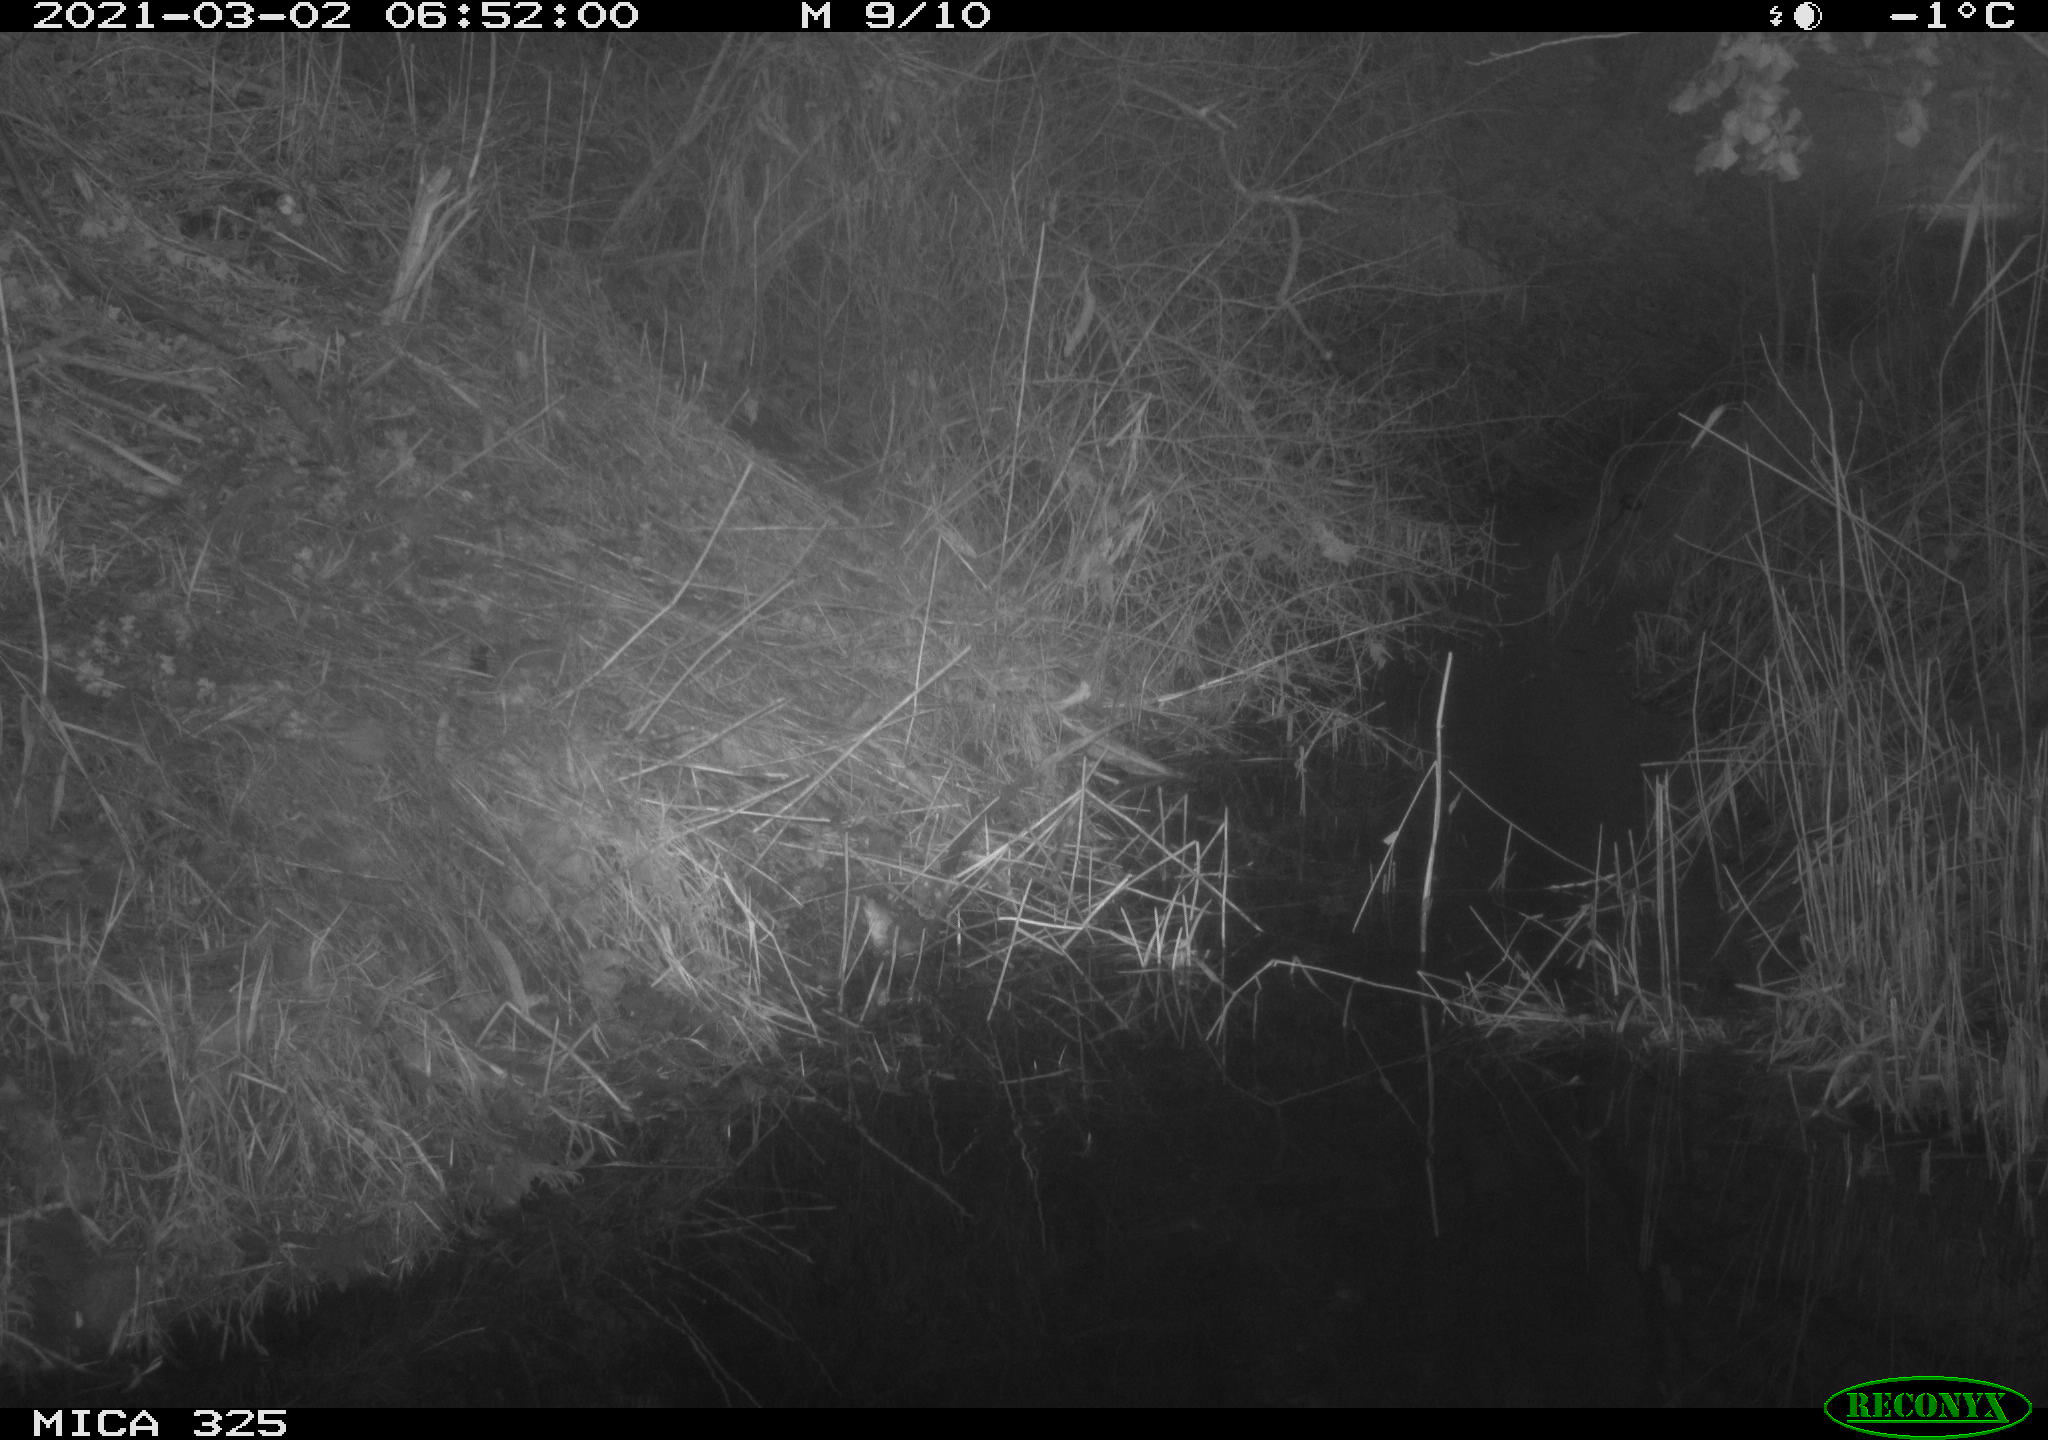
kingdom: Animalia
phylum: Chordata
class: Mammalia
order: Artiodactyla
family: Cervidae
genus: Capreolus
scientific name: Capreolus capreolus
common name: Western roe deer
